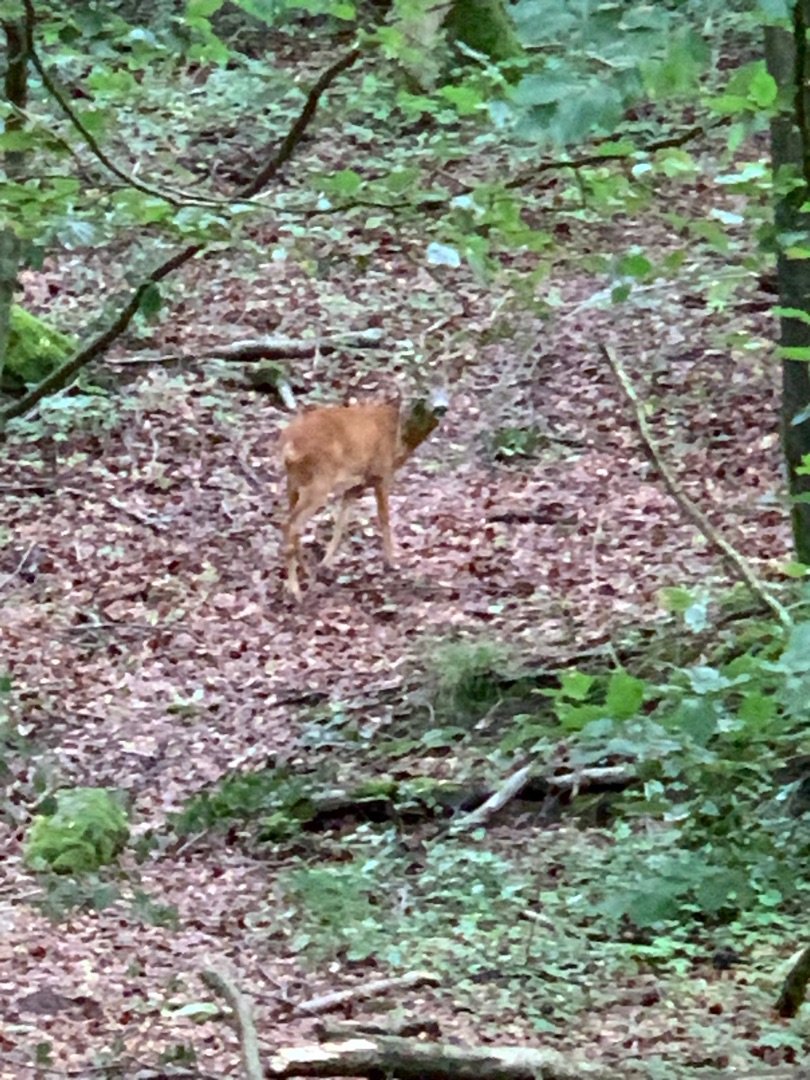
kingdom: Animalia
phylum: Chordata
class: Mammalia
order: Artiodactyla
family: Cervidae
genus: Capreolus
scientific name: Capreolus capreolus
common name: Rådyr
